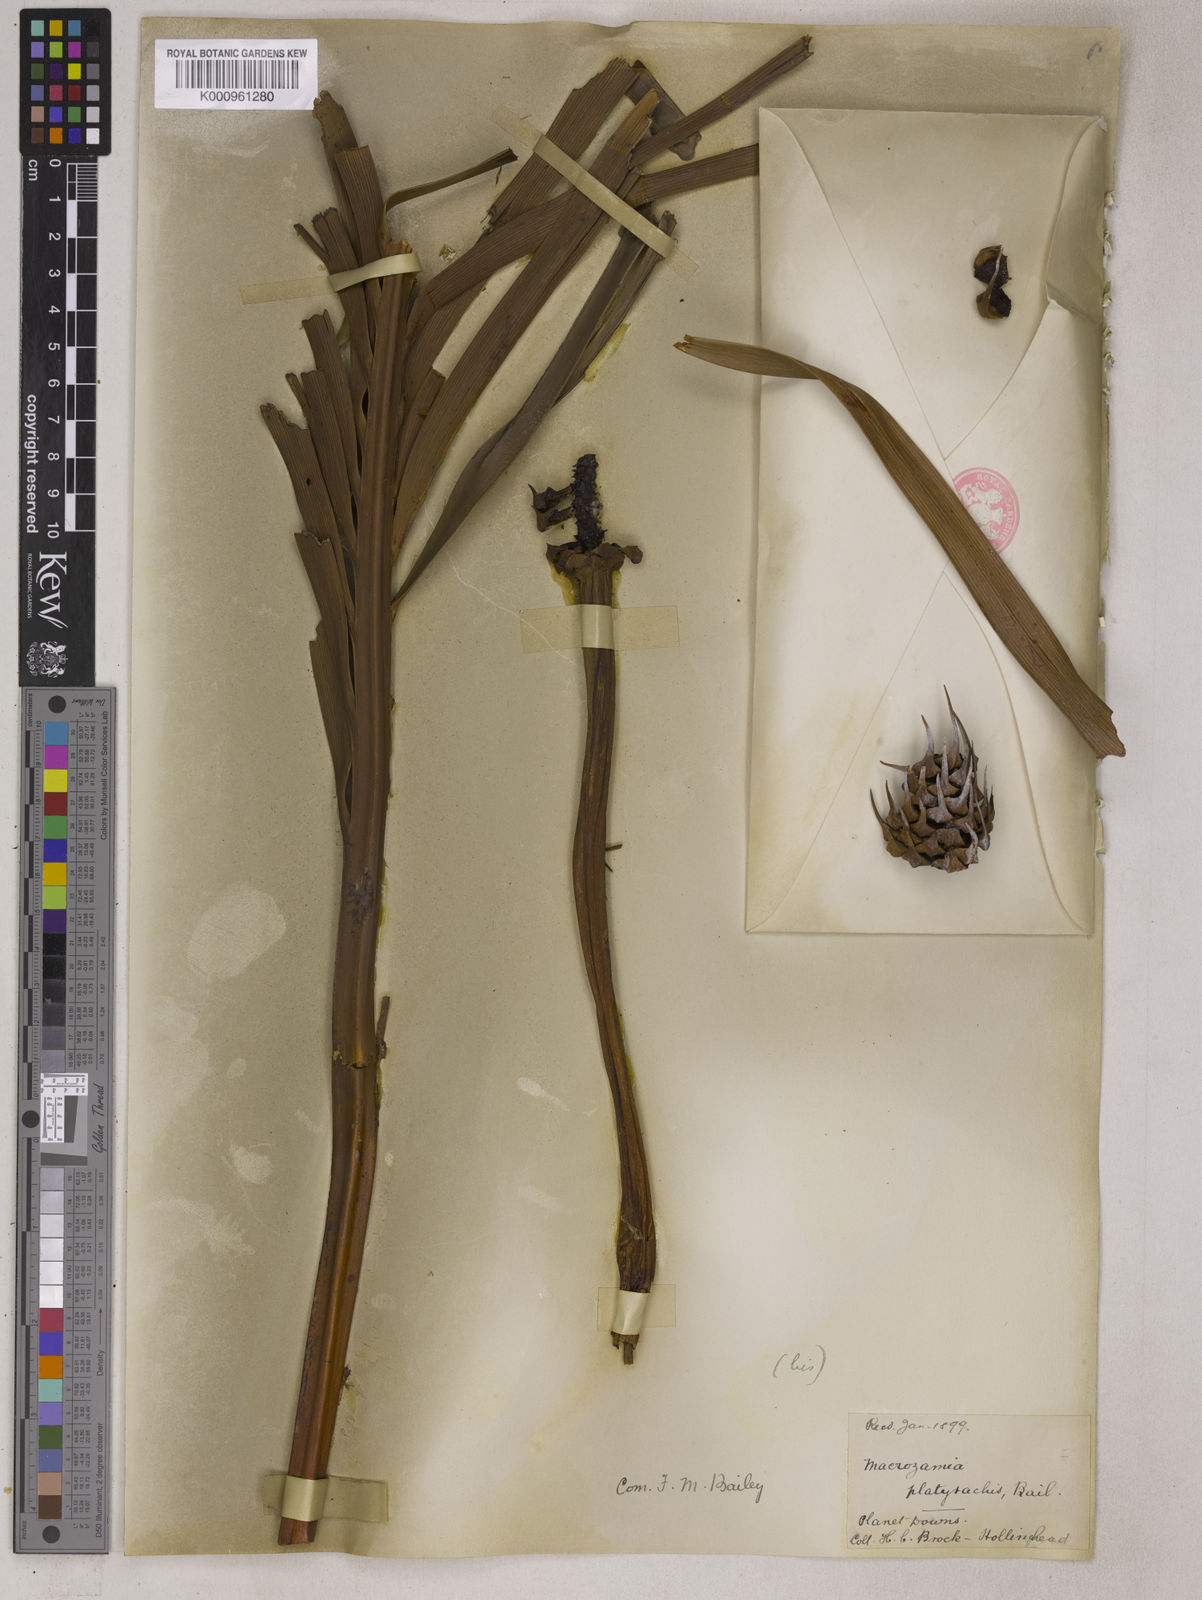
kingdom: Plantae
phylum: Tracheophyta
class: Cycadopsida
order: Cycadales
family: Zamiaceae
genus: Macrozamia
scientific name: Macrozamia platyrhachis
